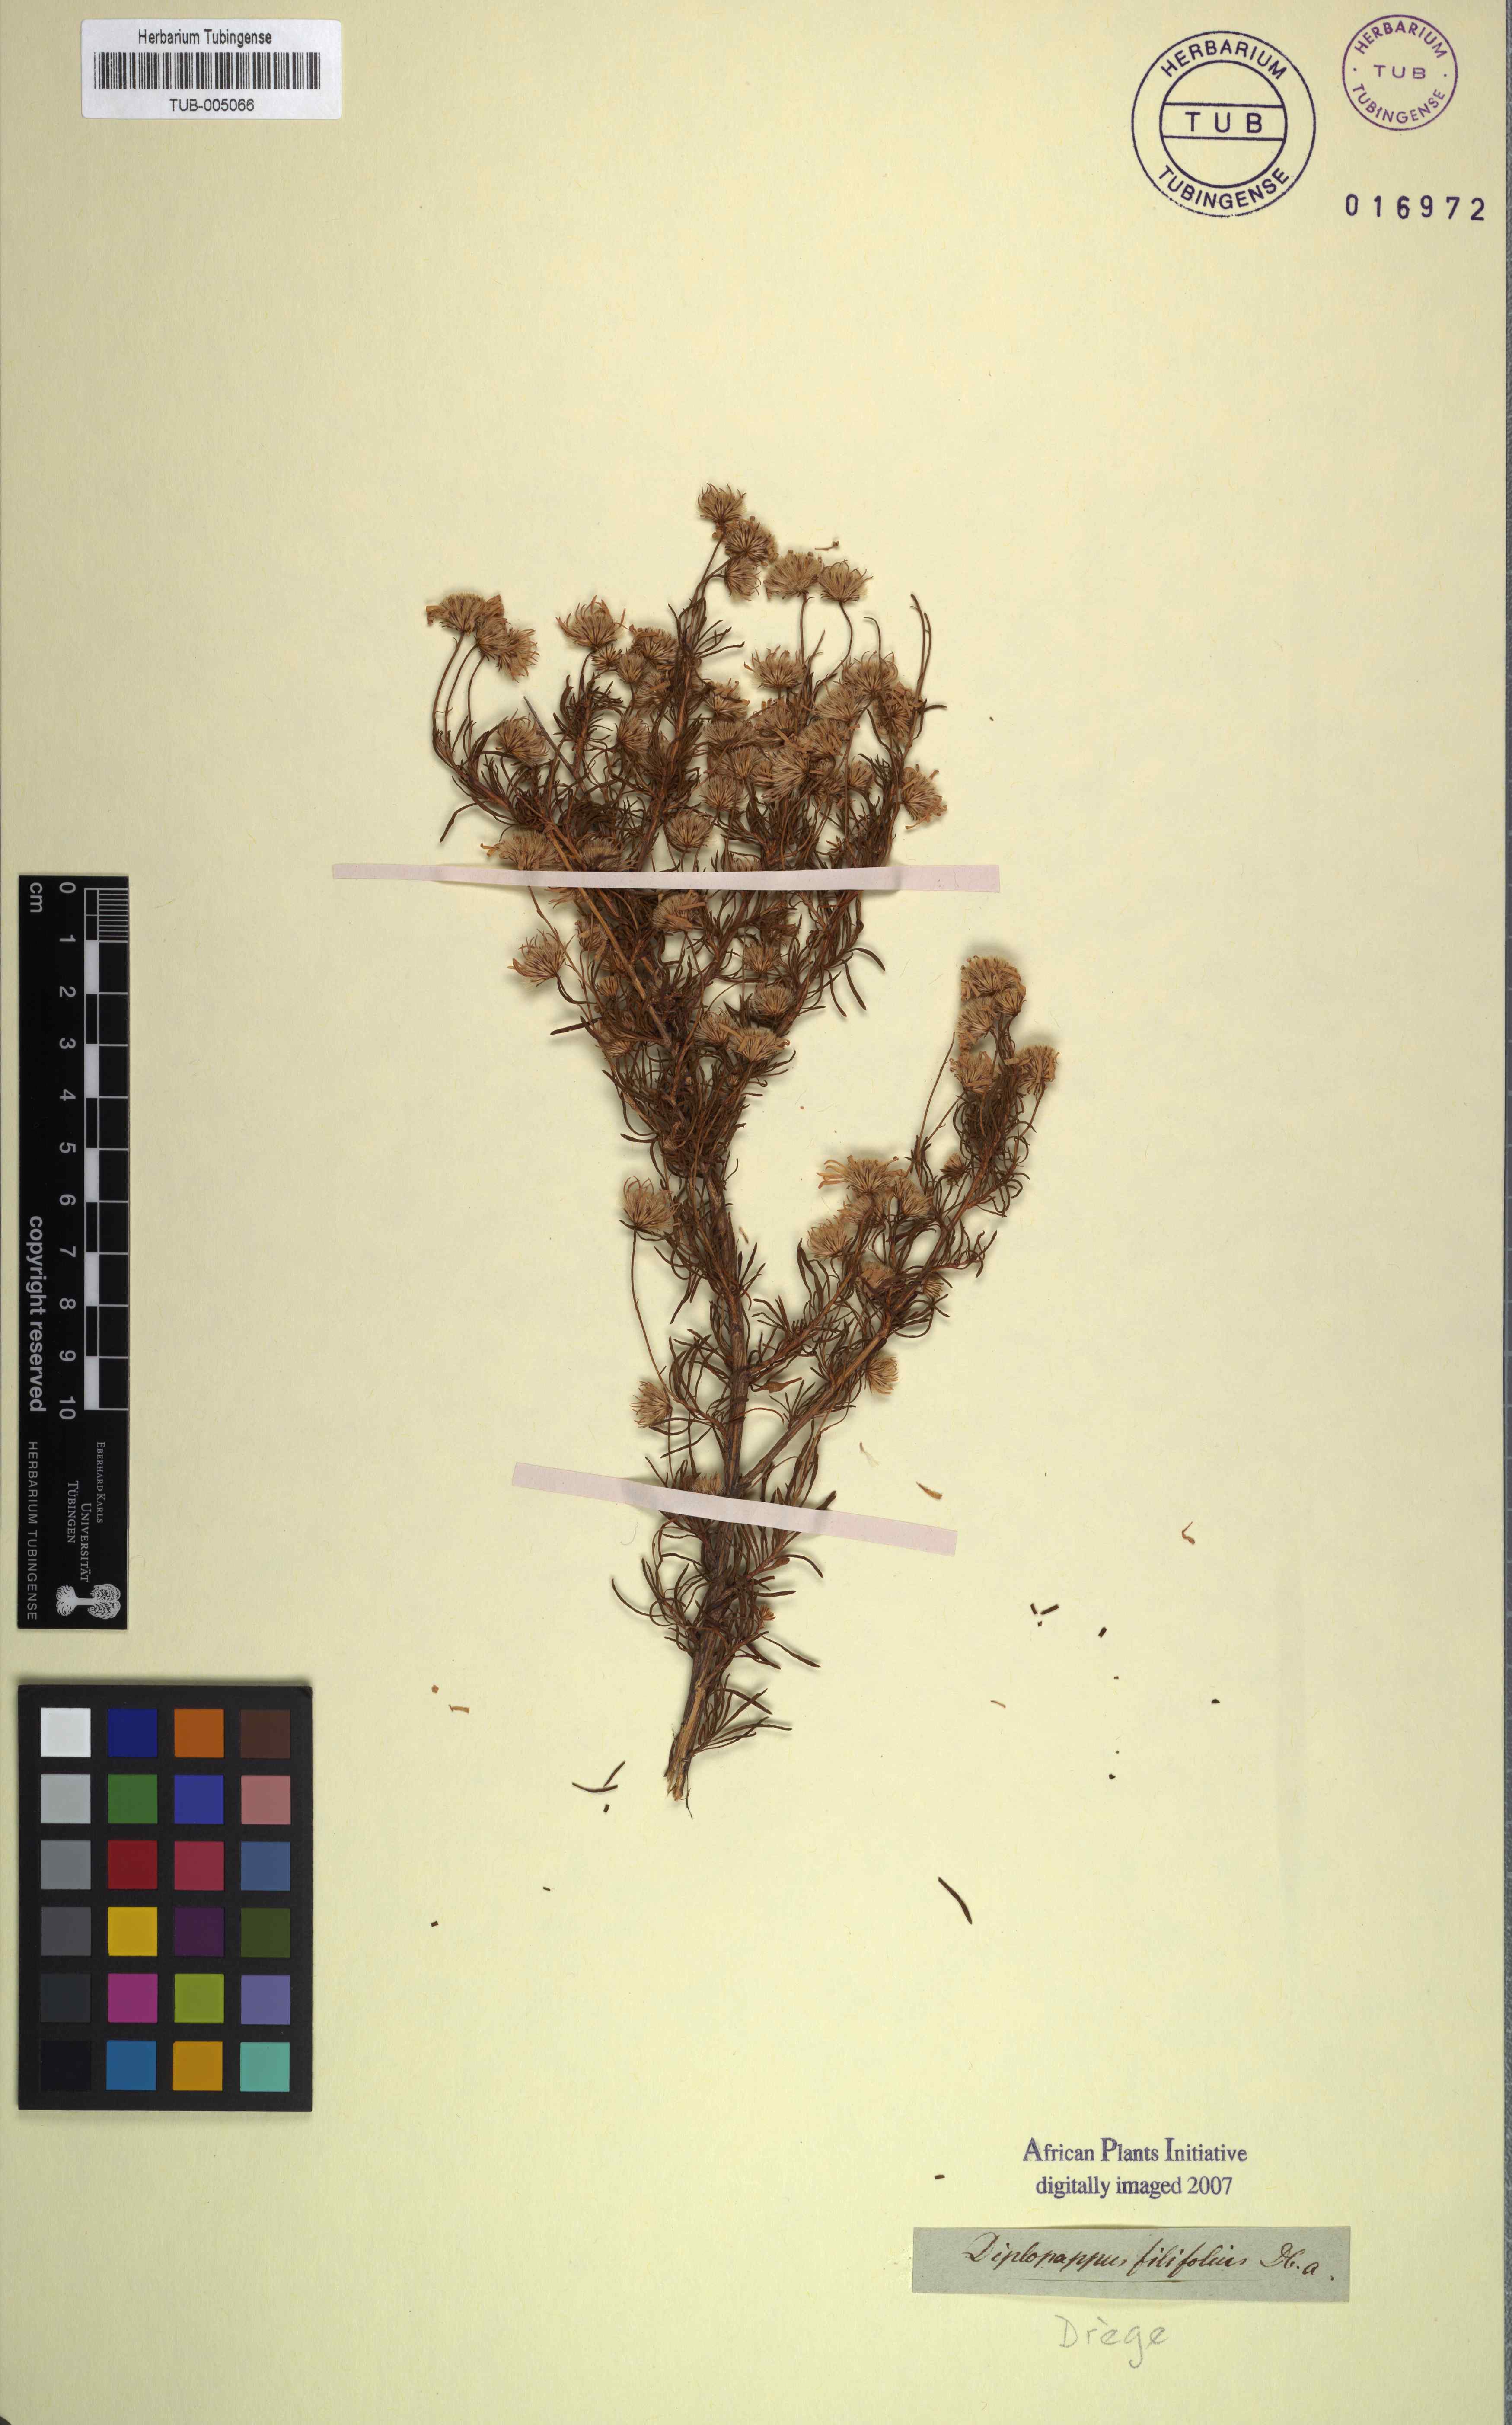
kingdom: Plantae
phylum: Tracheophyta
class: Magnoliopsida
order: Asterales
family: Asteraceae
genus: Felicia
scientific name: Felicia filifolia
